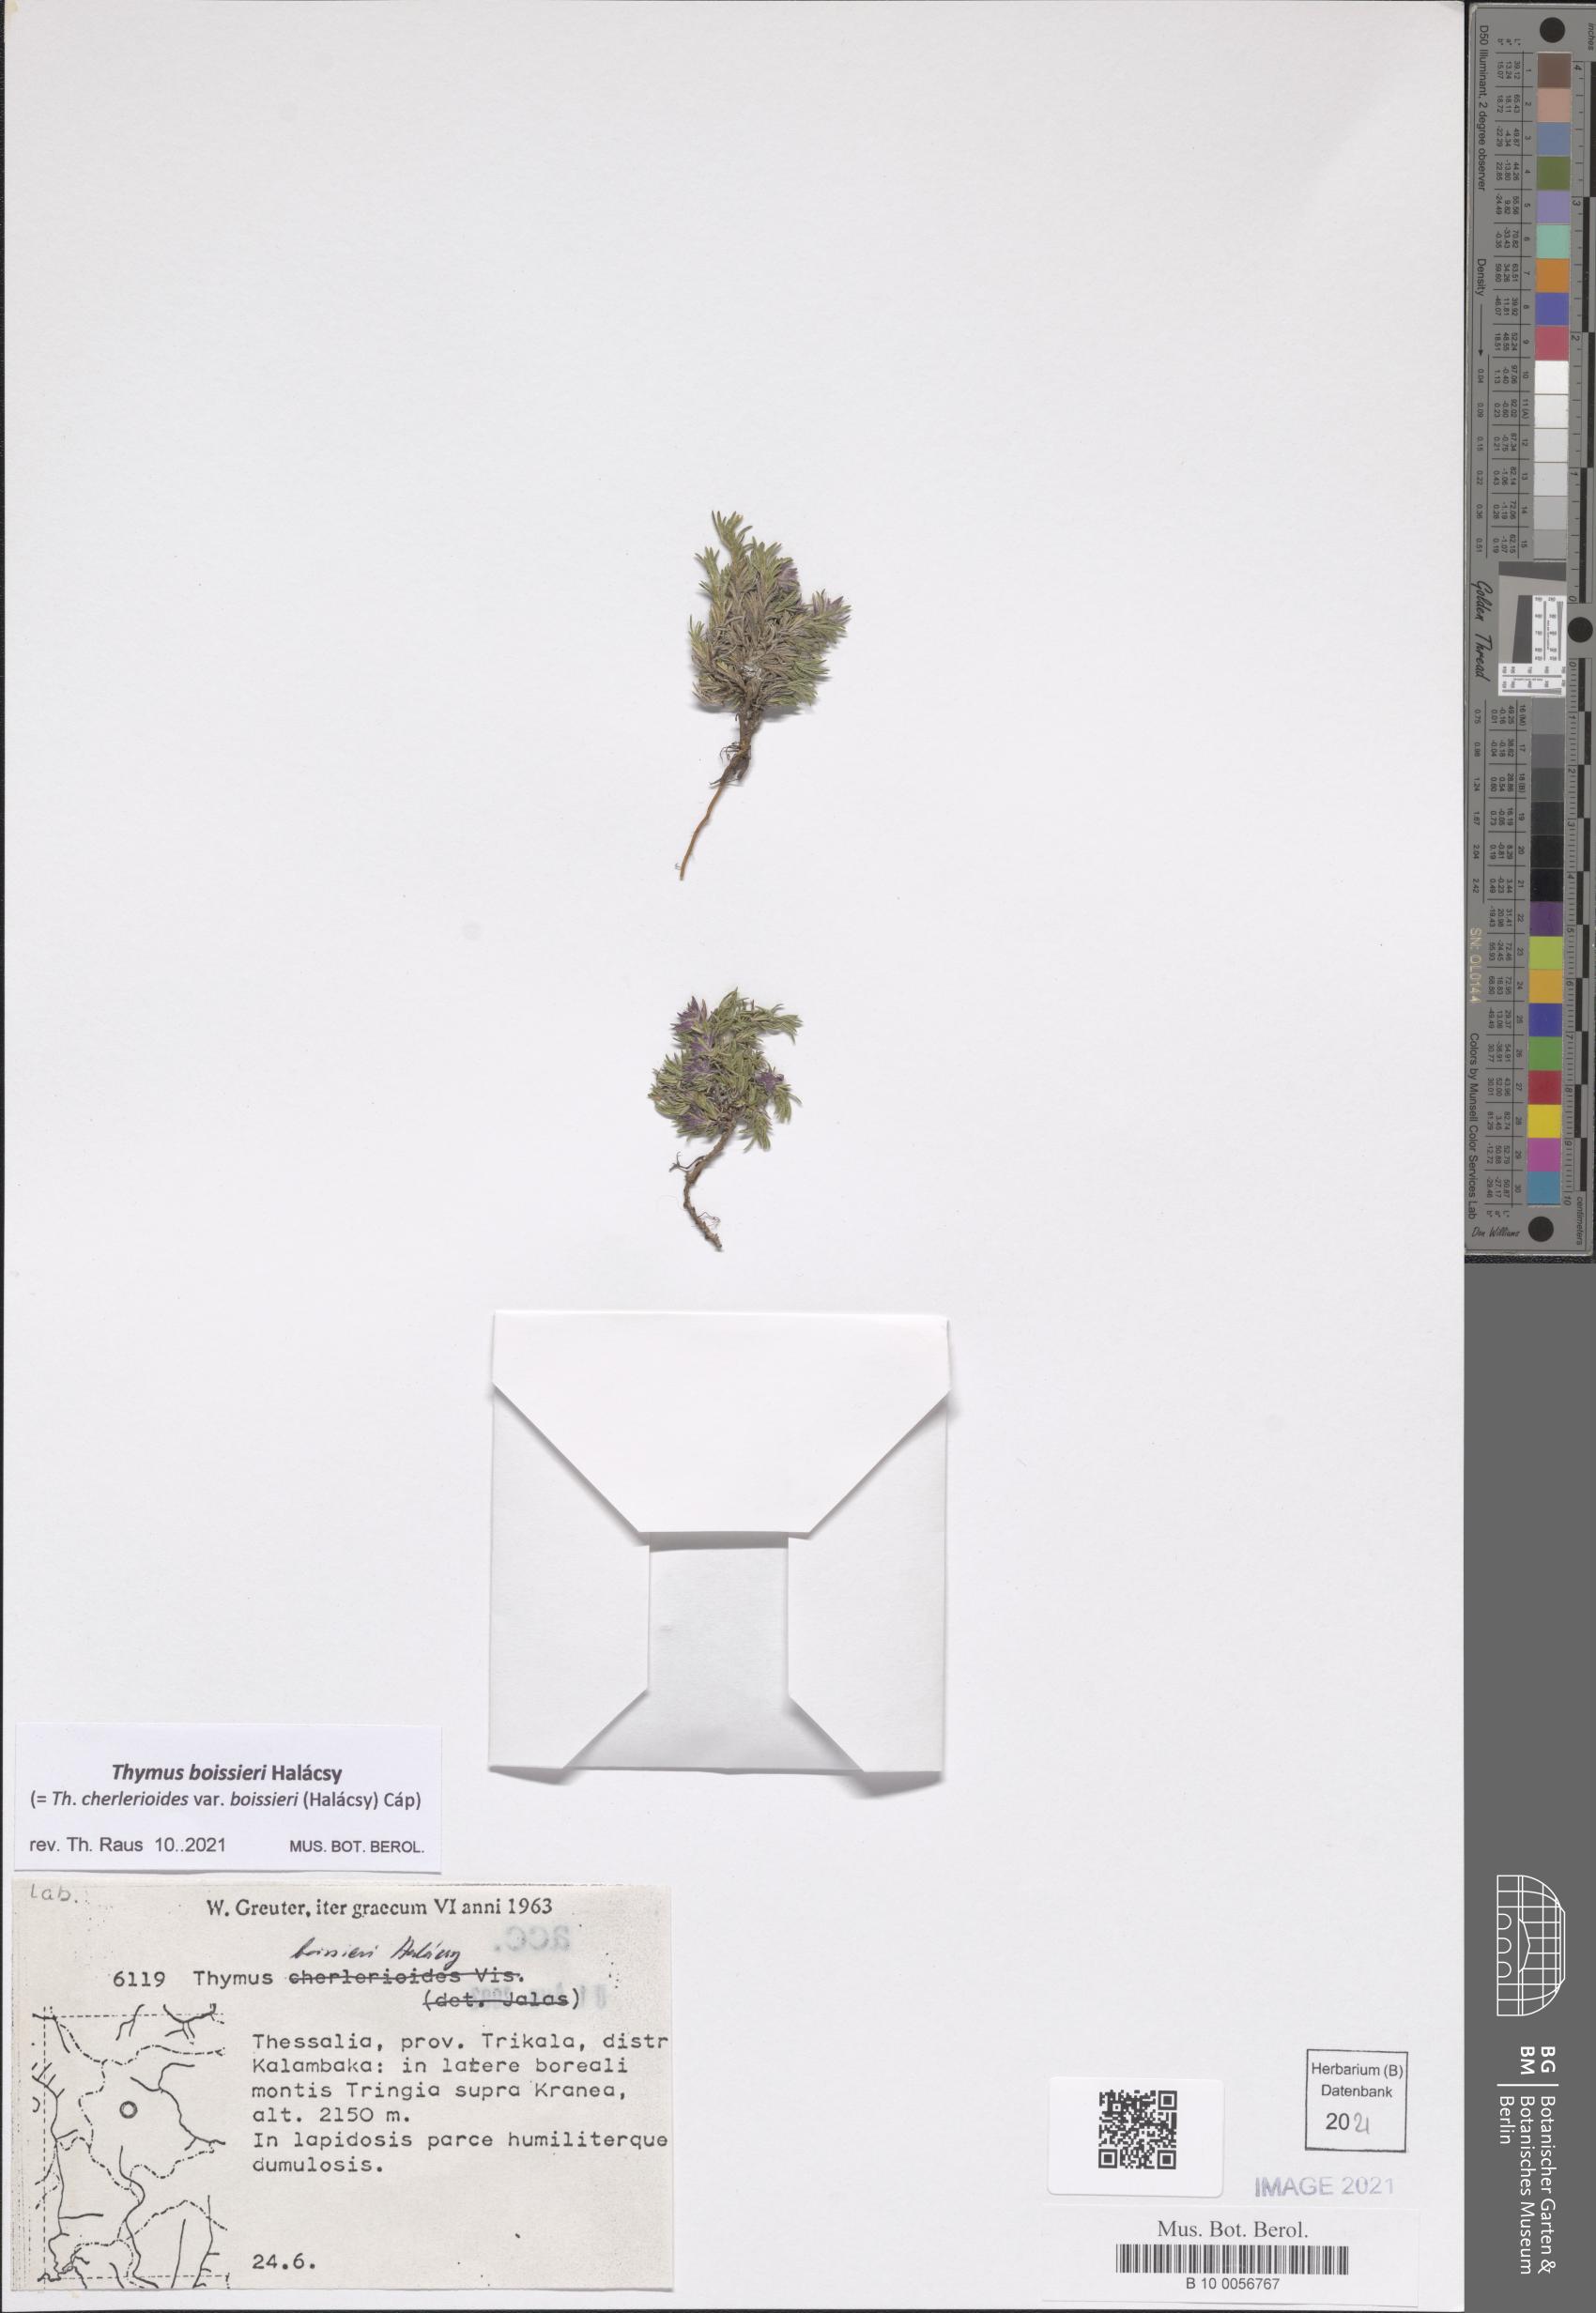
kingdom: Plantae
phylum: Tracheophyta
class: Magnoliopsida
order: Lamiales
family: Lamiaceae
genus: Thymus
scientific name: Thymus boissieri
